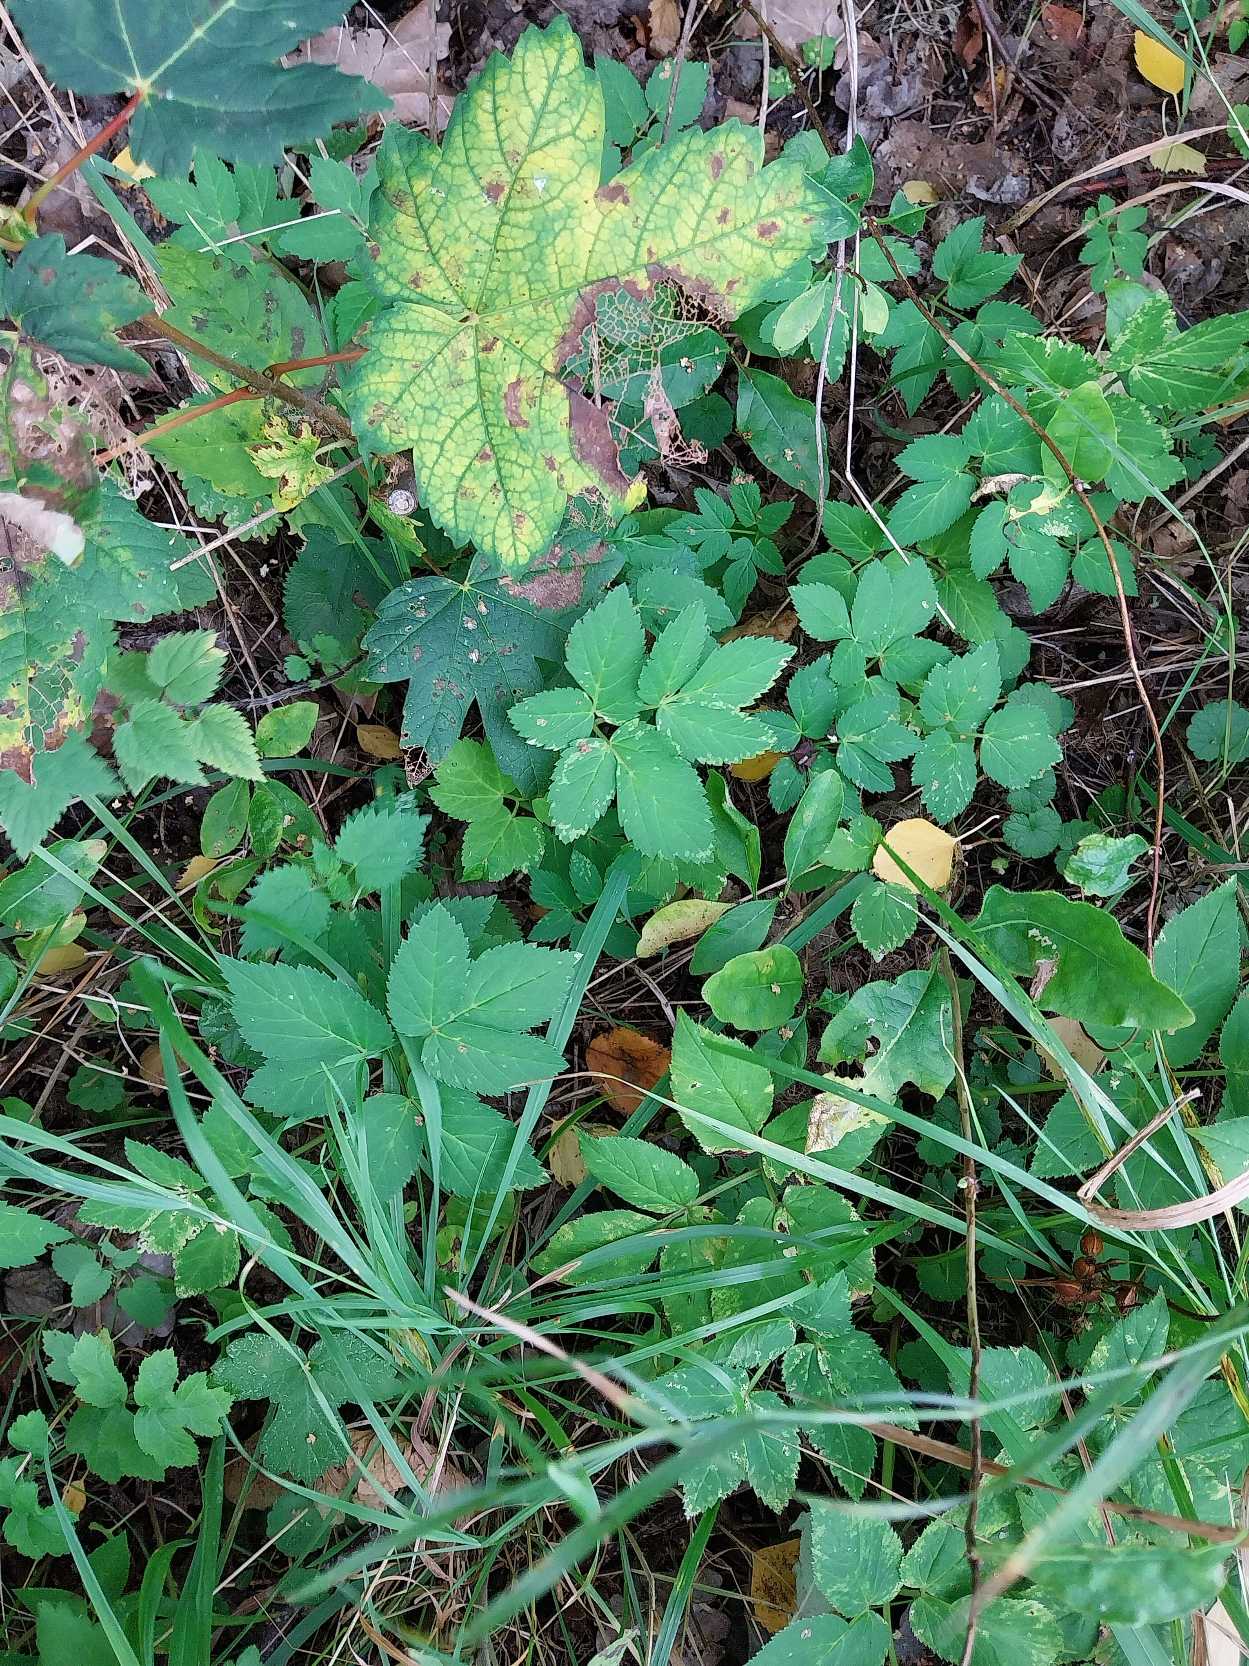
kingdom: Plantae
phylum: Tracheophyta
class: Magnoliopsida
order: Apiales
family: Apiaceae
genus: Aegopodium
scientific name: Aegopodium podagraria
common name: Skvalderkål
